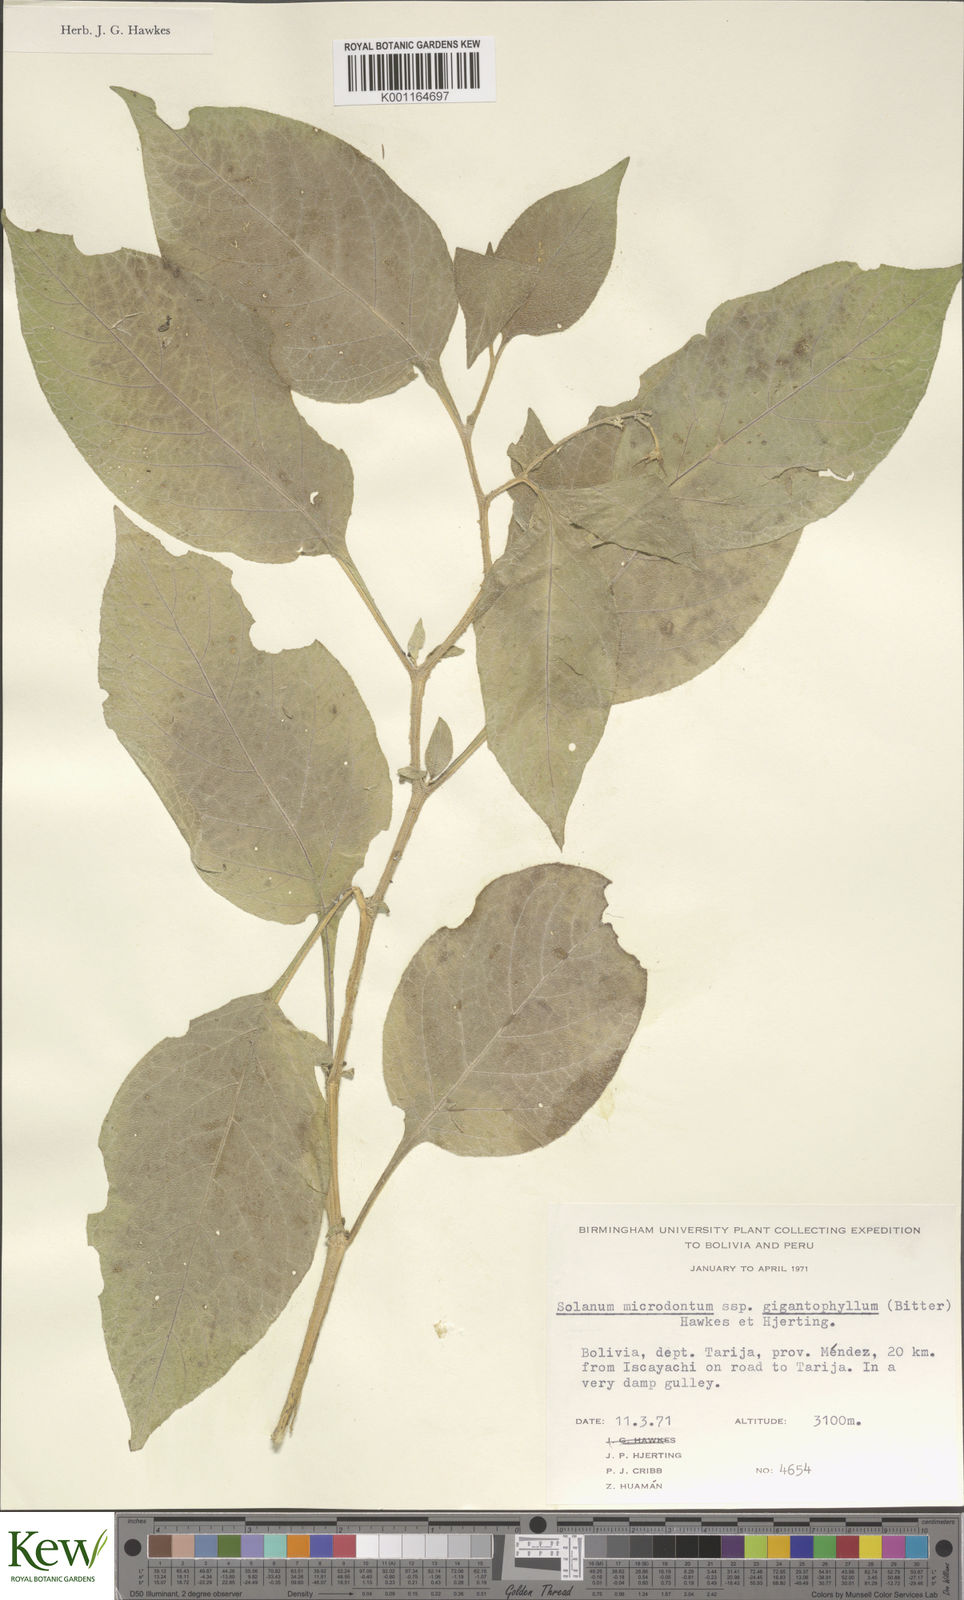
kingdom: Plantae
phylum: Tracheophyta
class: Magnoliopsida
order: Solanales
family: Solanaceae
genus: Solanum
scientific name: Solanum microdontum
